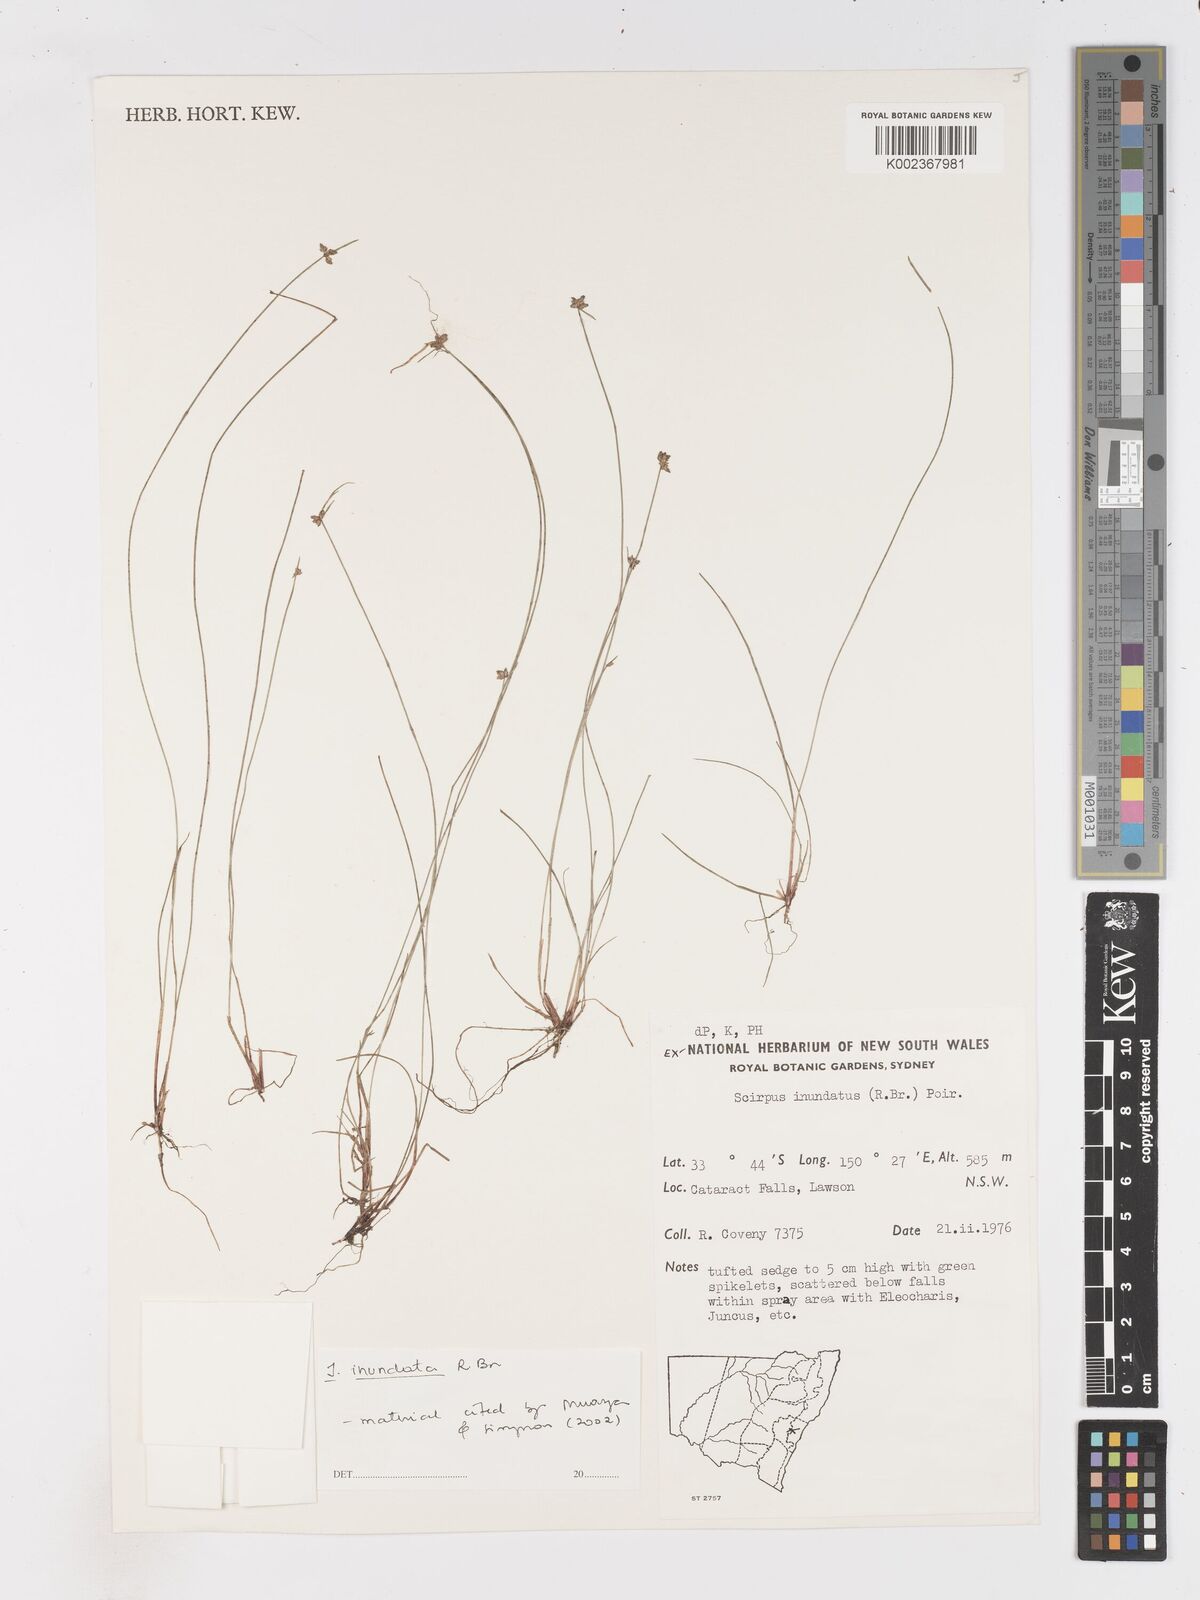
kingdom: Plantae
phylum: Tracheophyta
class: Liliopsida
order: Poales
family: Cyperaceae
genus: Isolepis
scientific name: Isolepis inundata
